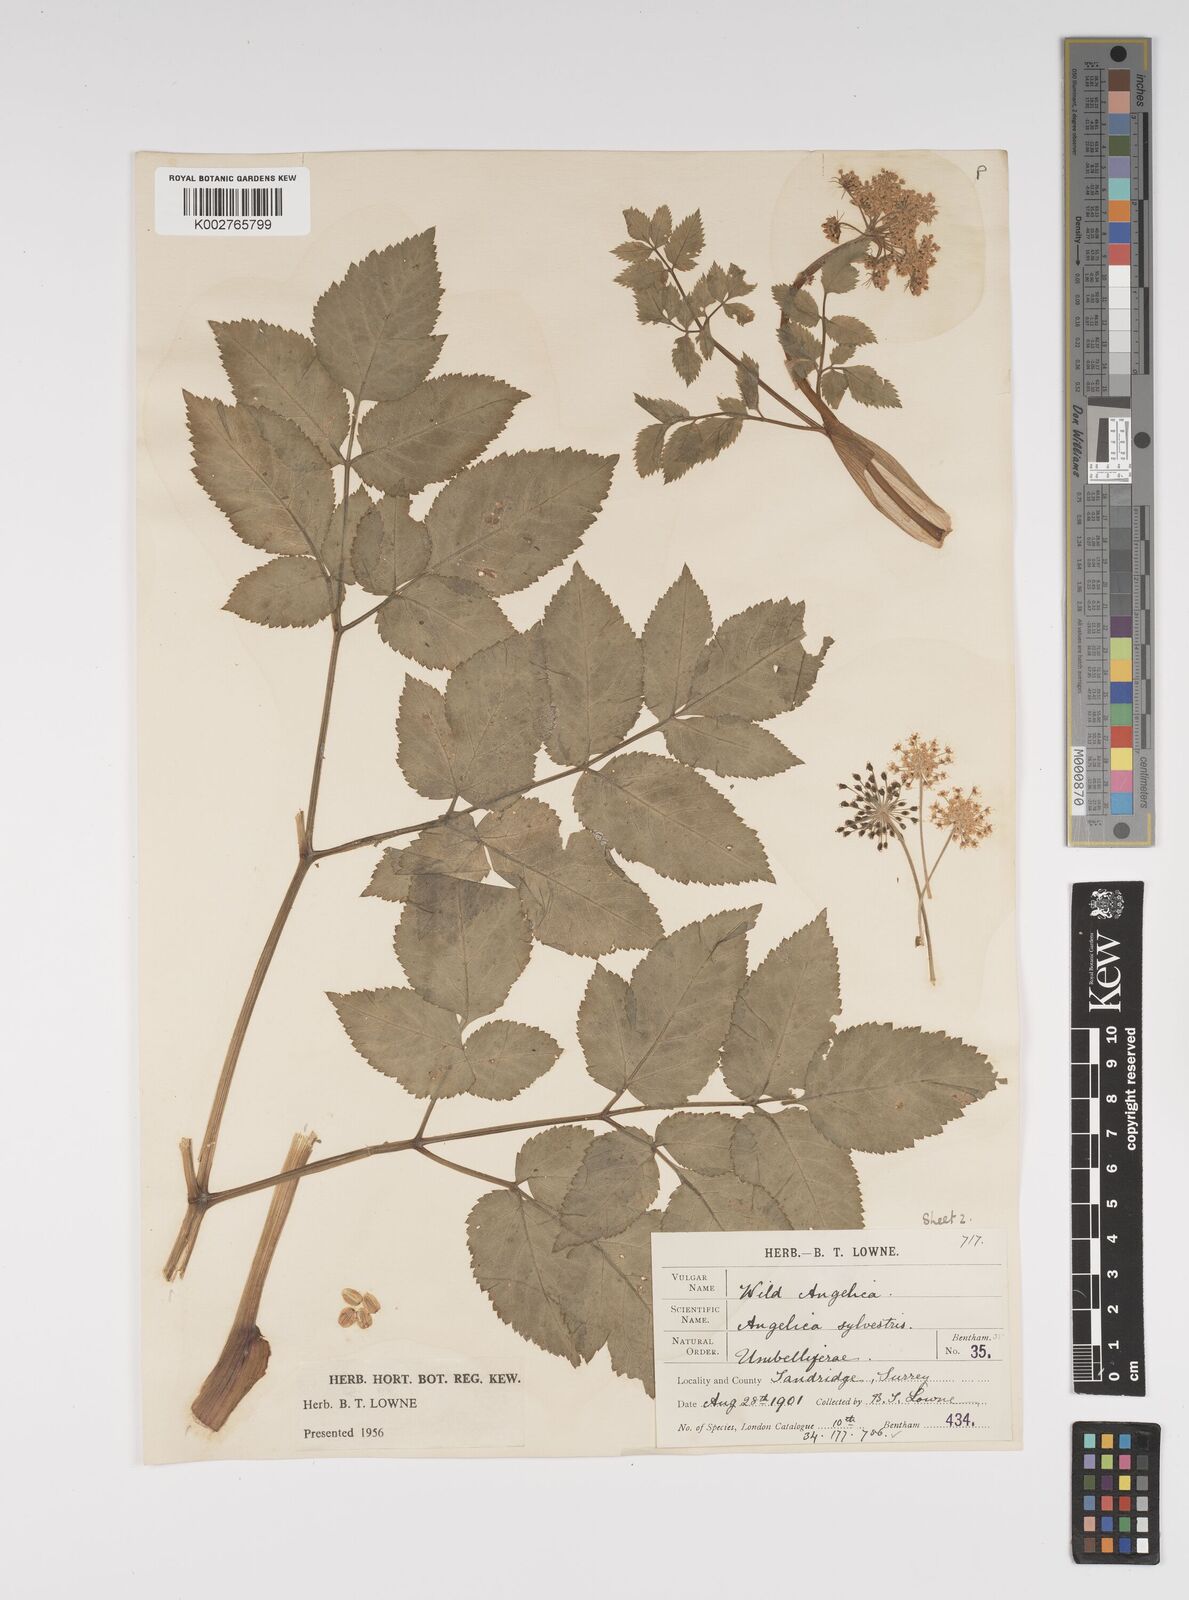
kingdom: Plantae
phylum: Tracheophyta
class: Magnoliopsida
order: Apiales
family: Apiaceae
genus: Angelica
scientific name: Angelica sylvestris
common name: Wild angelica
